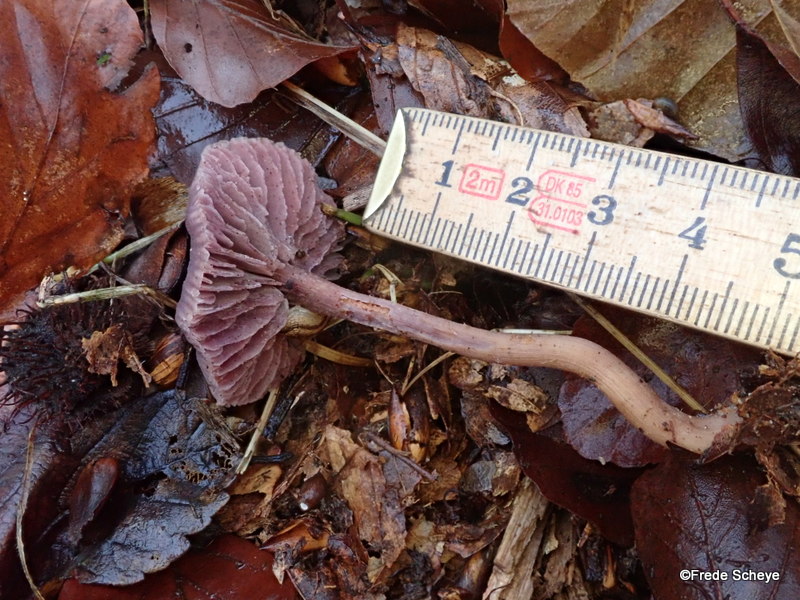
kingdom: Fungi
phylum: Basidiomycota
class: Agaricomycetes
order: Agaricales
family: Hydnangiaceae
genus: Laccaria
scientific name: Laccaria amethystina
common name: violet ametysthat
